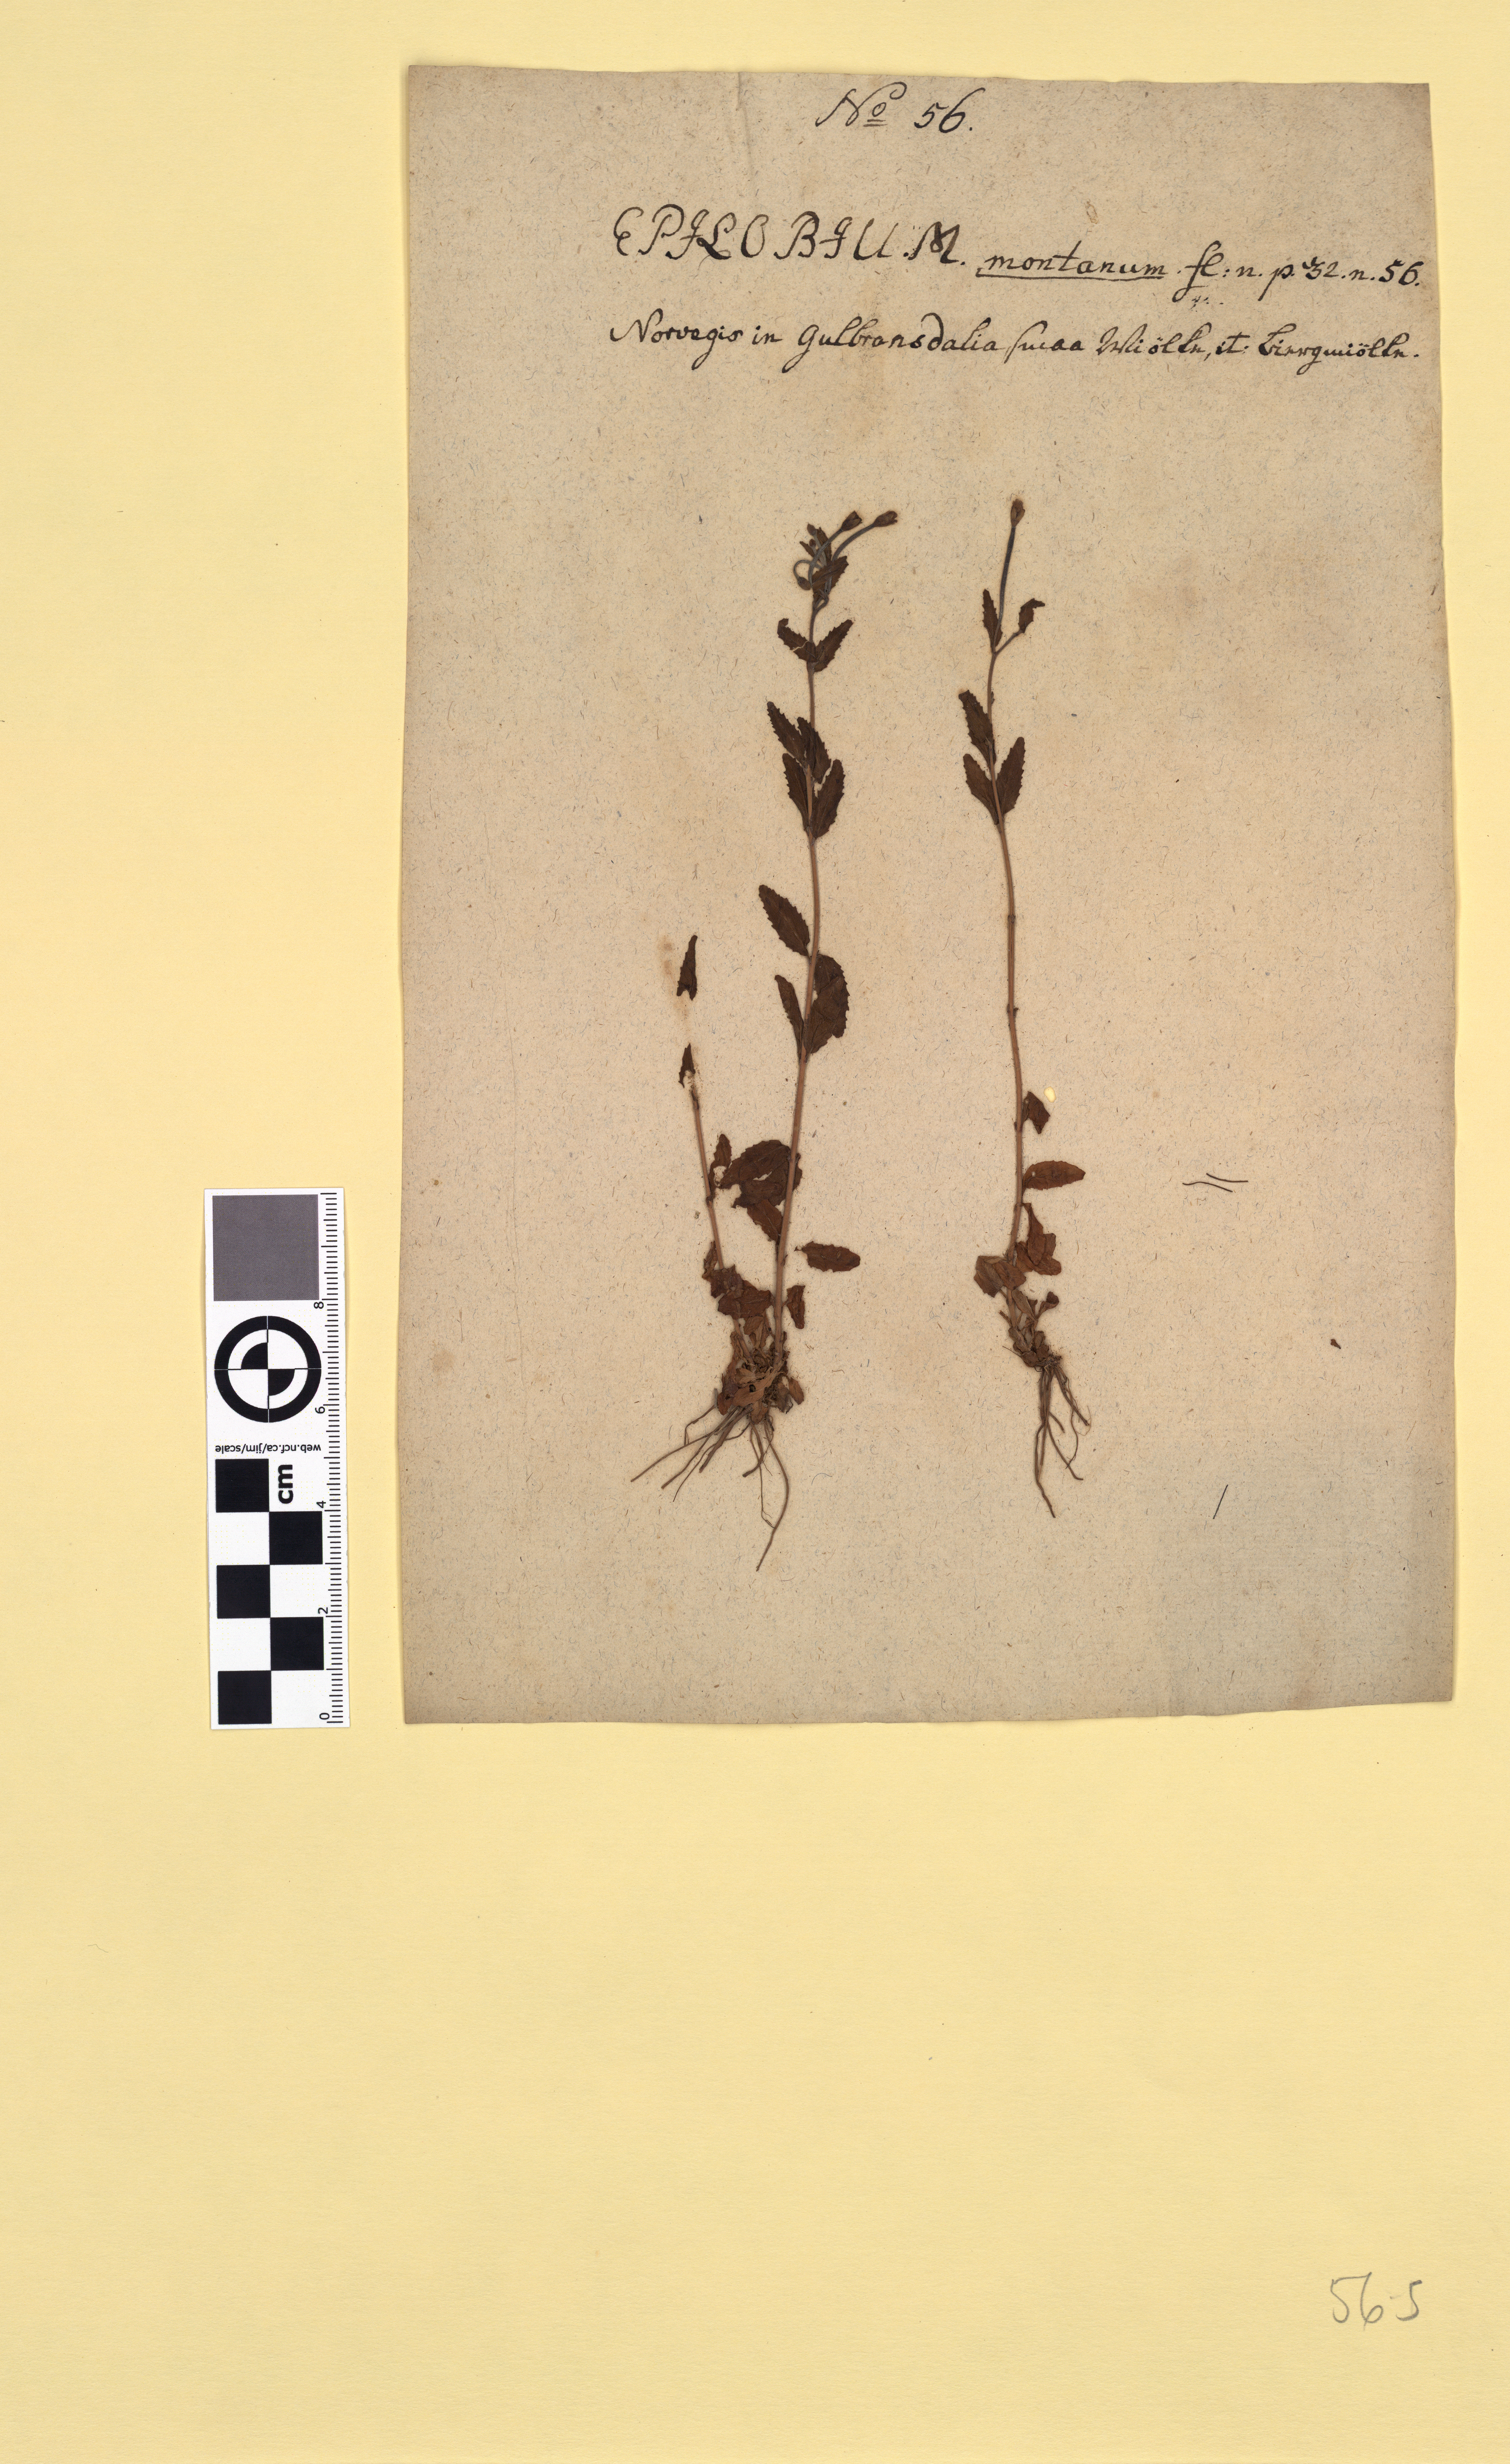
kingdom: Plantae
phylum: Tracheophyta
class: Magnoliopsida
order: Myrtales
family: Onagraceae
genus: Epilobium
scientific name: Epilobium collinum
